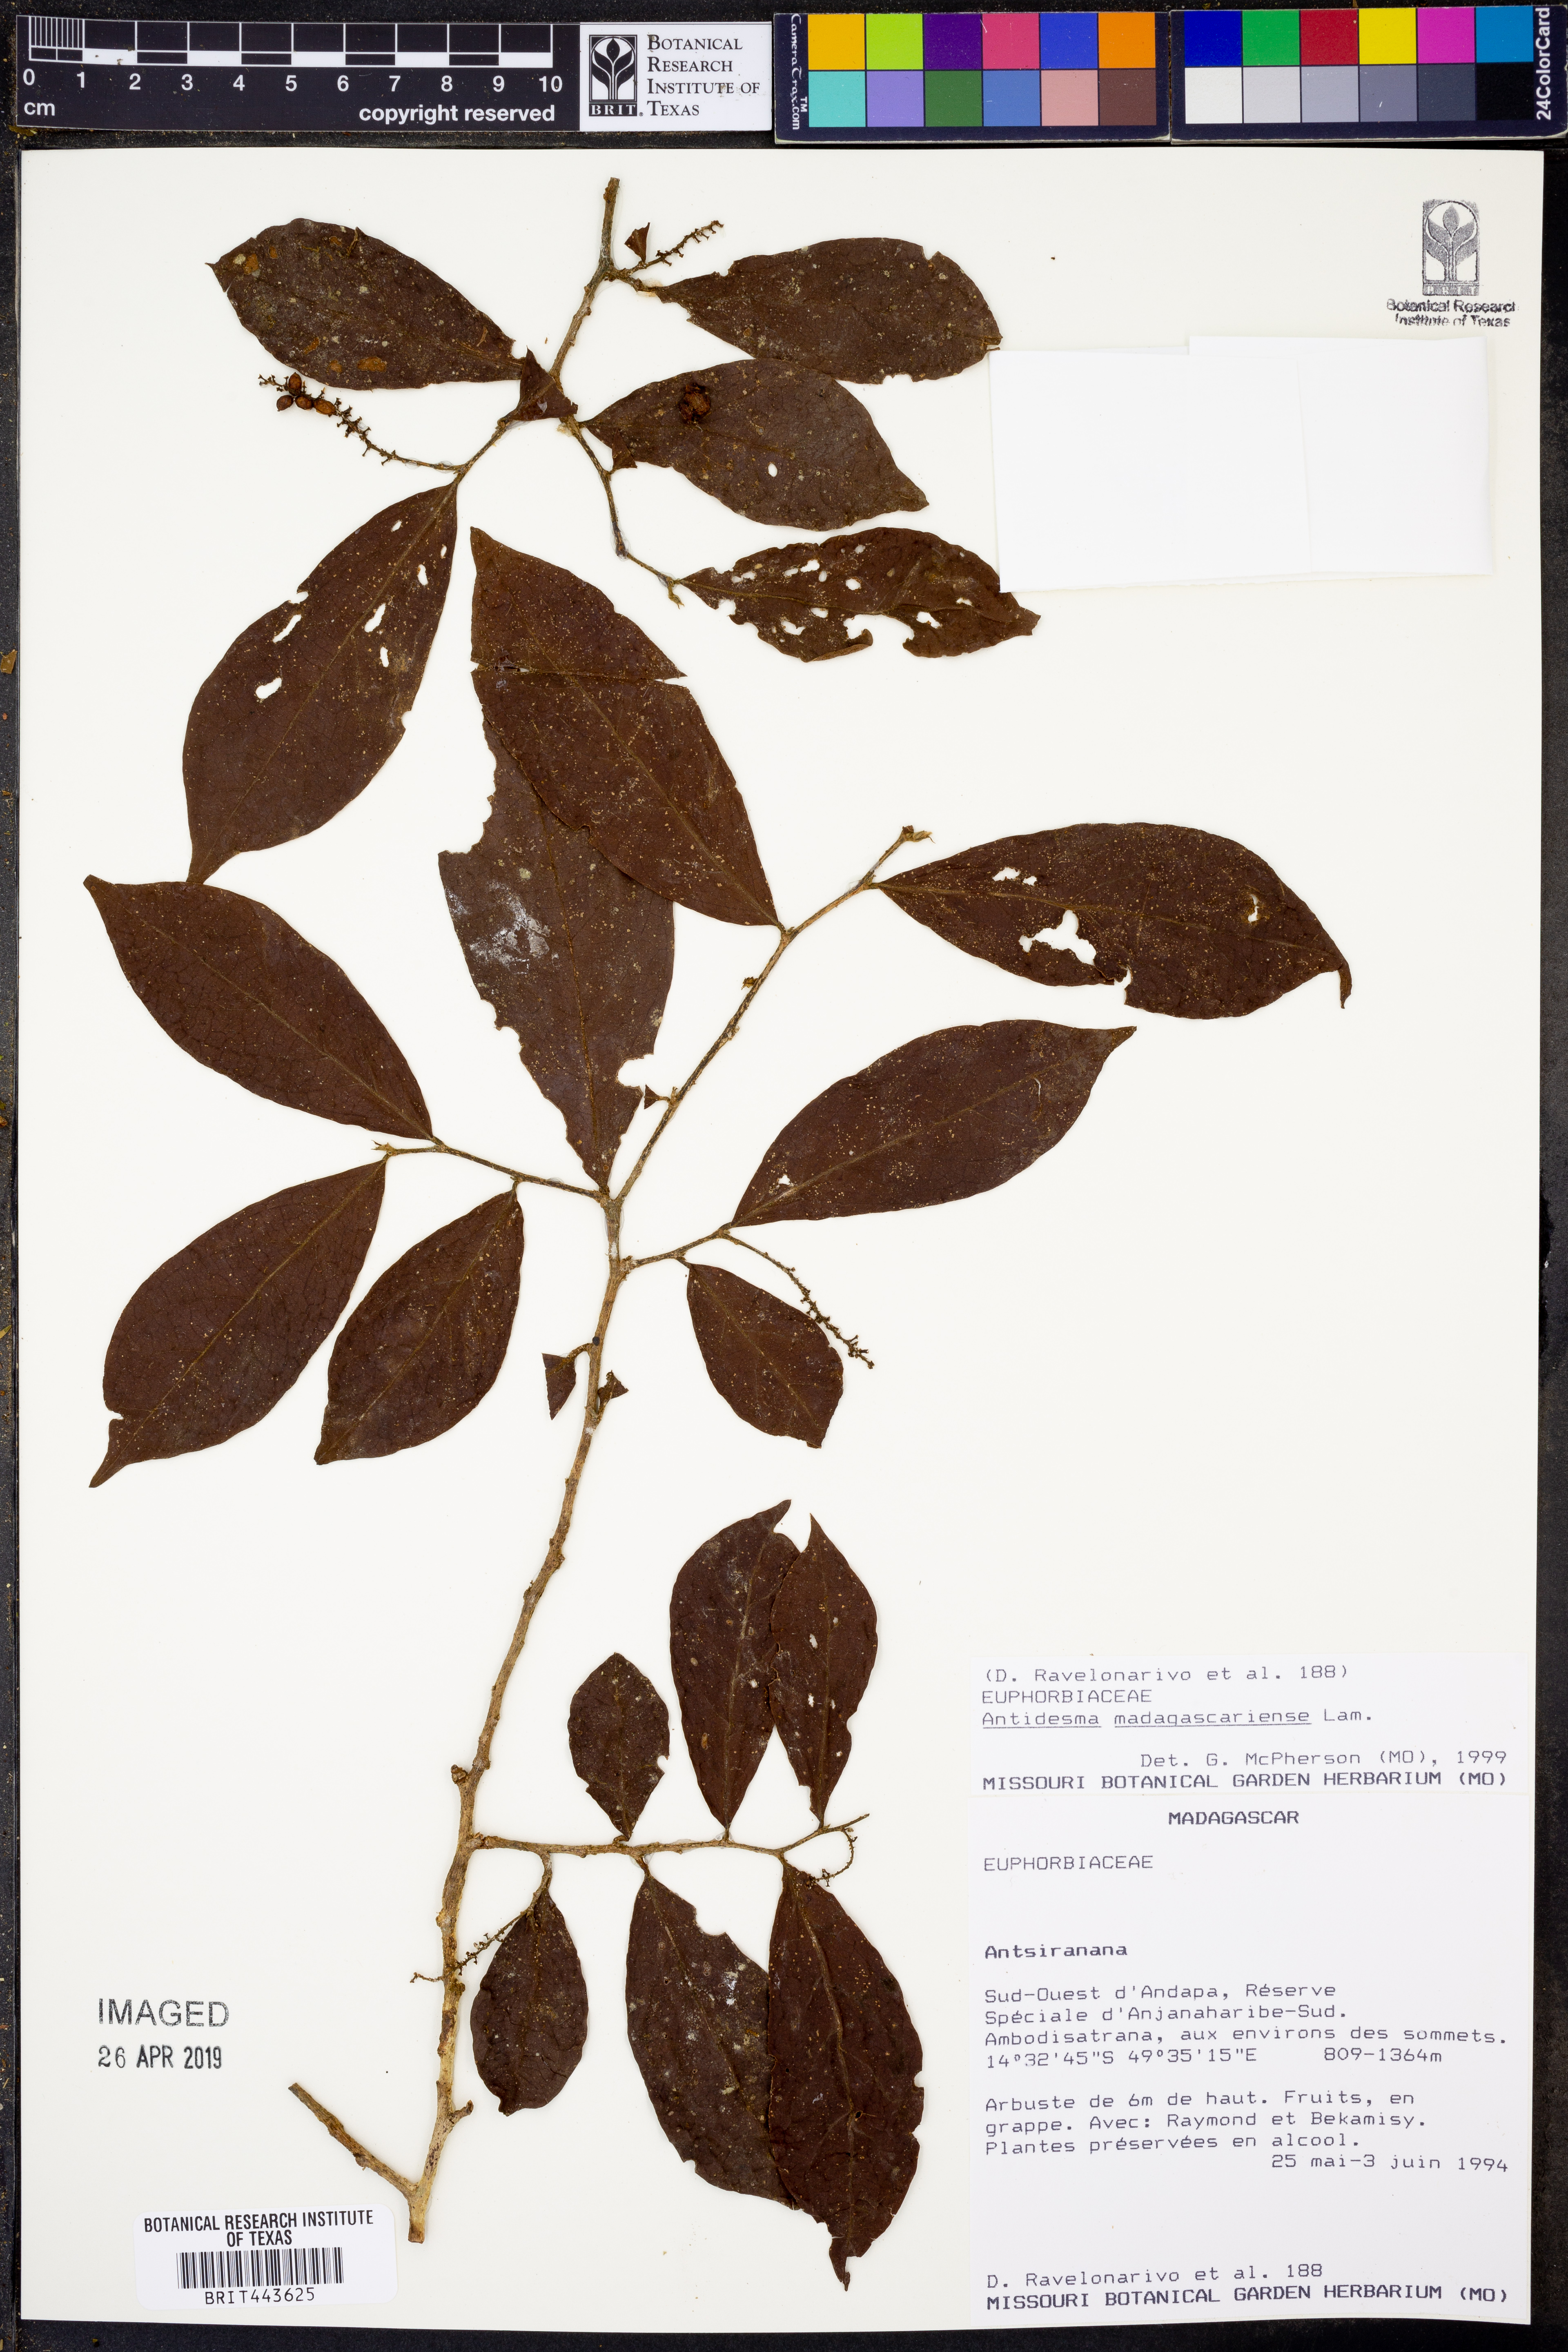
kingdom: Plantae
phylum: Tracheophyta
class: Magnoliopsida
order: Malpighiales
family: Euphorbiaceae
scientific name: Euphorbiaceae
